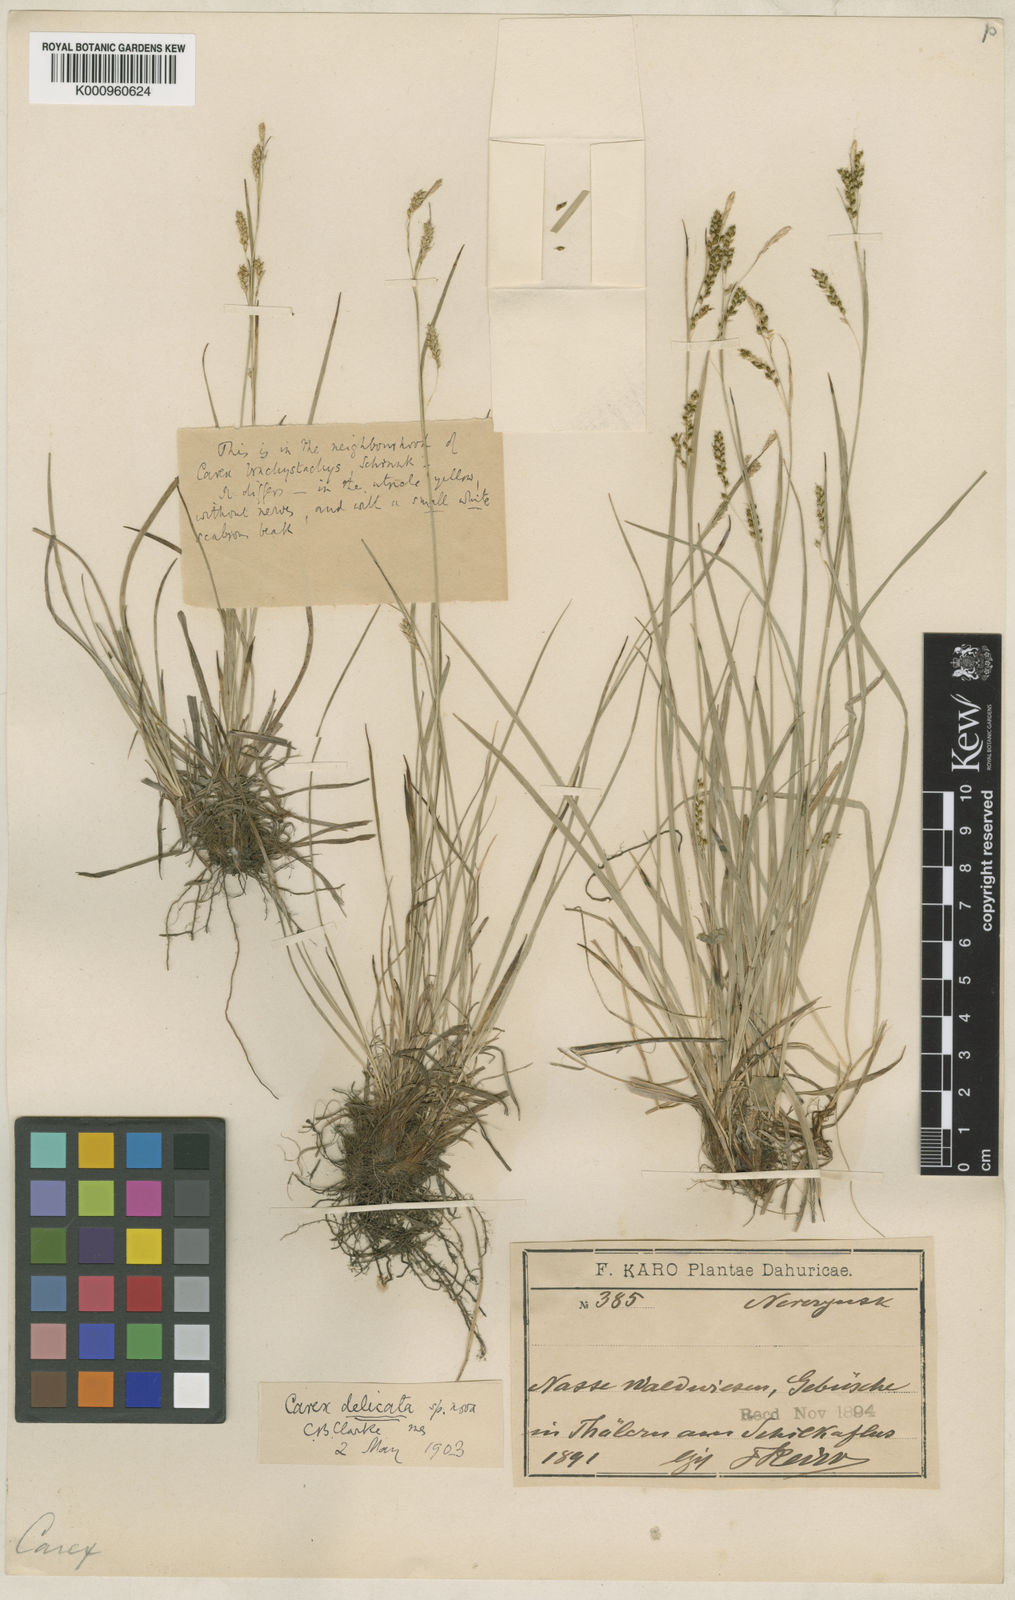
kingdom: Plantae
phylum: Tracheophyta
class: Liliopsida
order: Poales
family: Cyperaceae
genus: Carex
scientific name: Carex delicata
